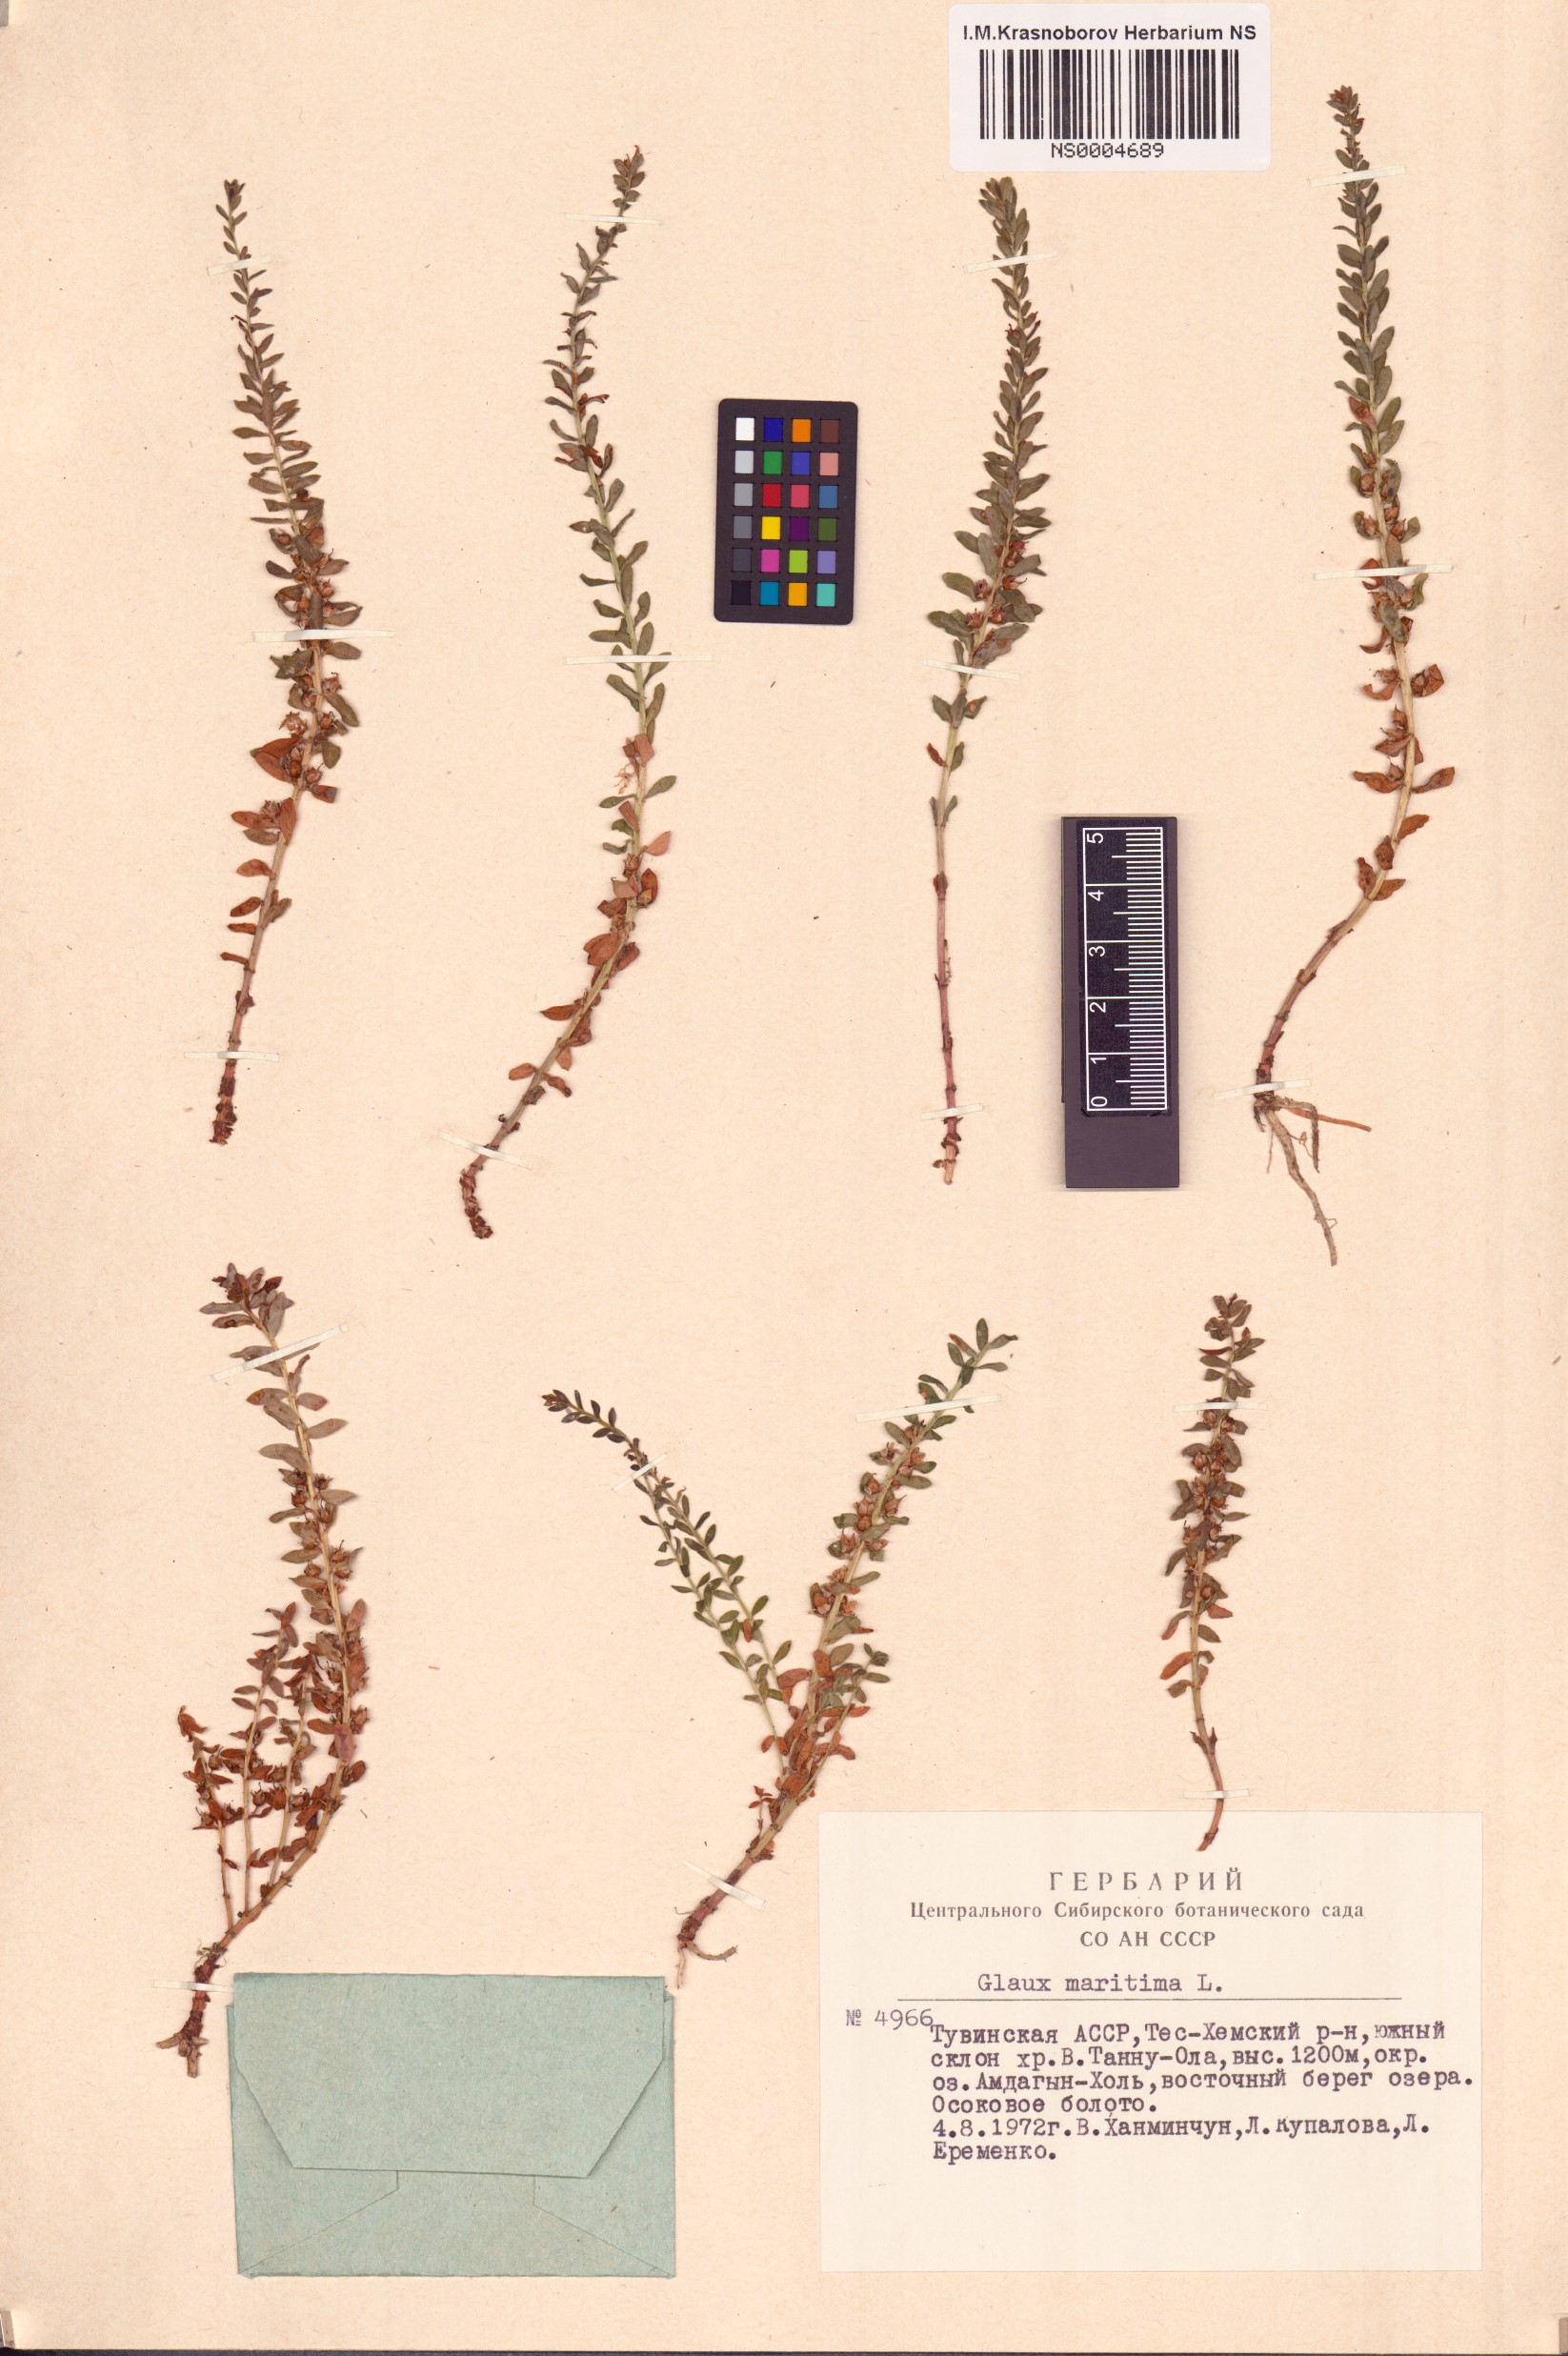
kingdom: Plantae
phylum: Tracheophyta
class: Magnoliopsida
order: Ericales
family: Primulaceae
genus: Lysimachia
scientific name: Lysimachia maritima
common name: Sea milkwort
